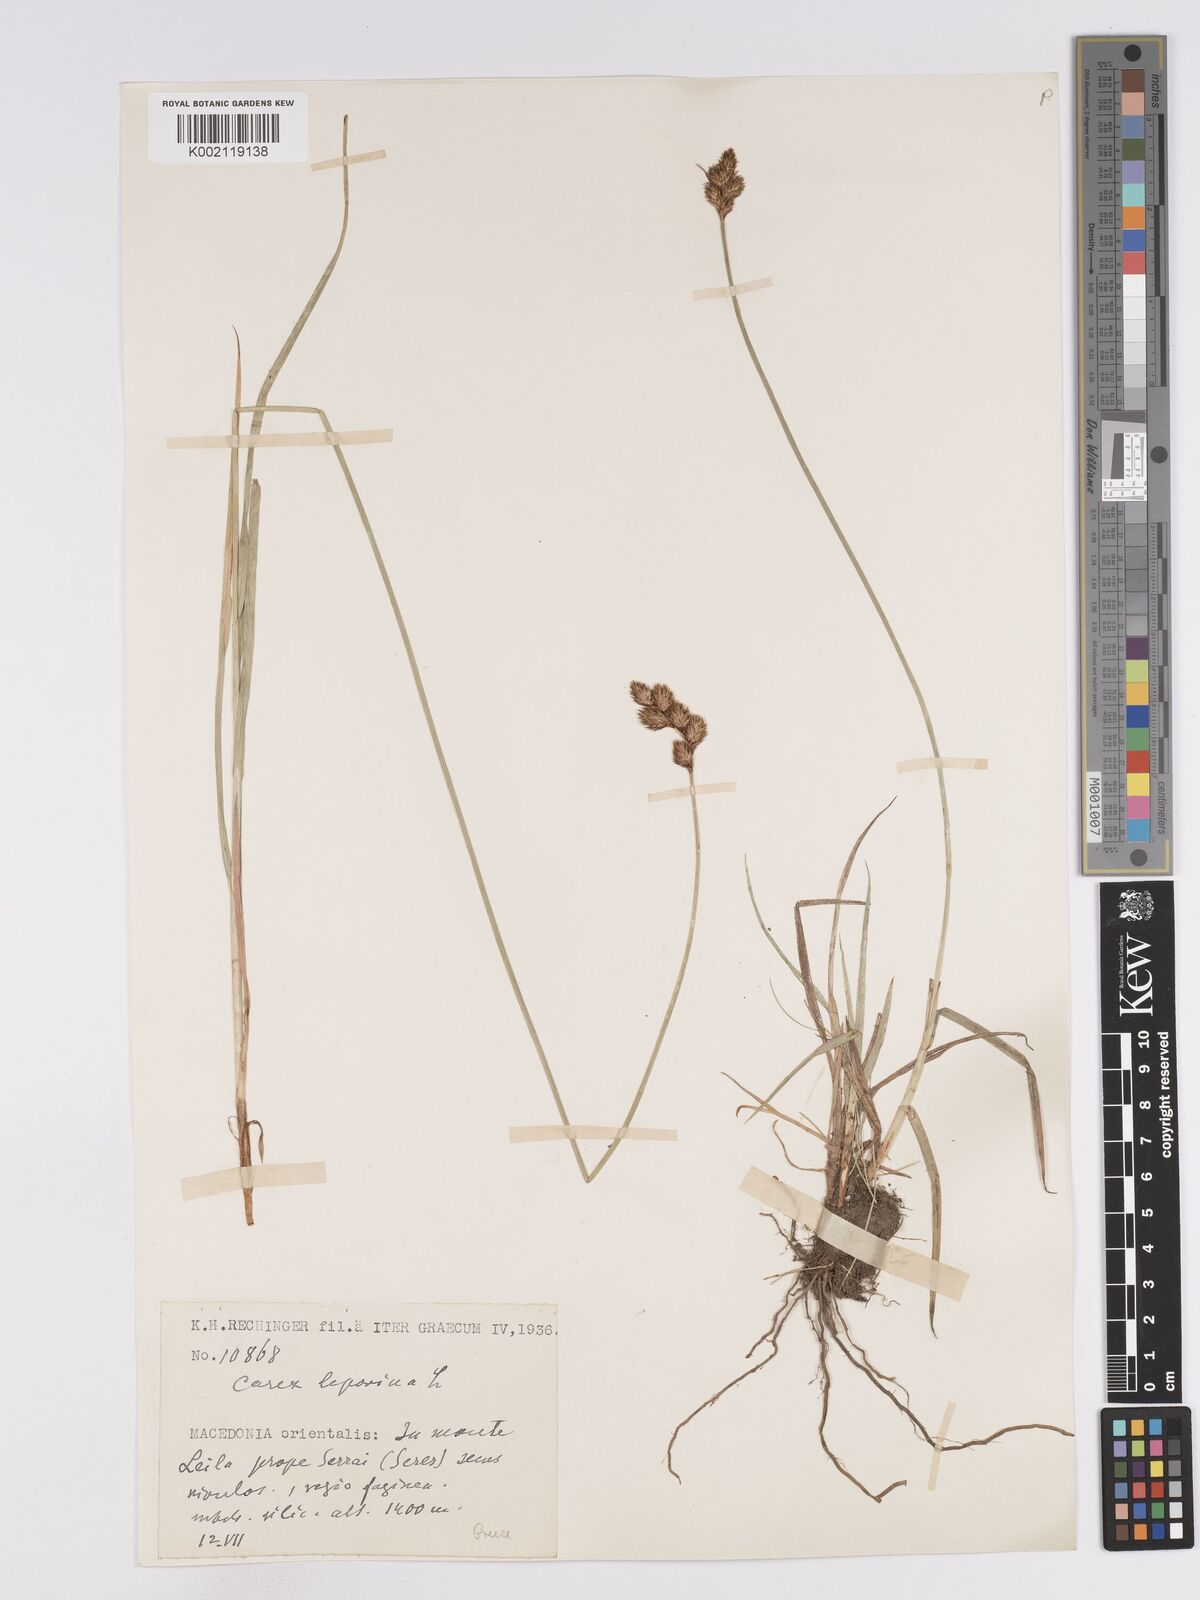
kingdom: Plantae
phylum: Tracheophyta
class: Liliopsida
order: Poales
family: Cyperaceae
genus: Carex
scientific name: Carex leporina
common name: Oval sedge
